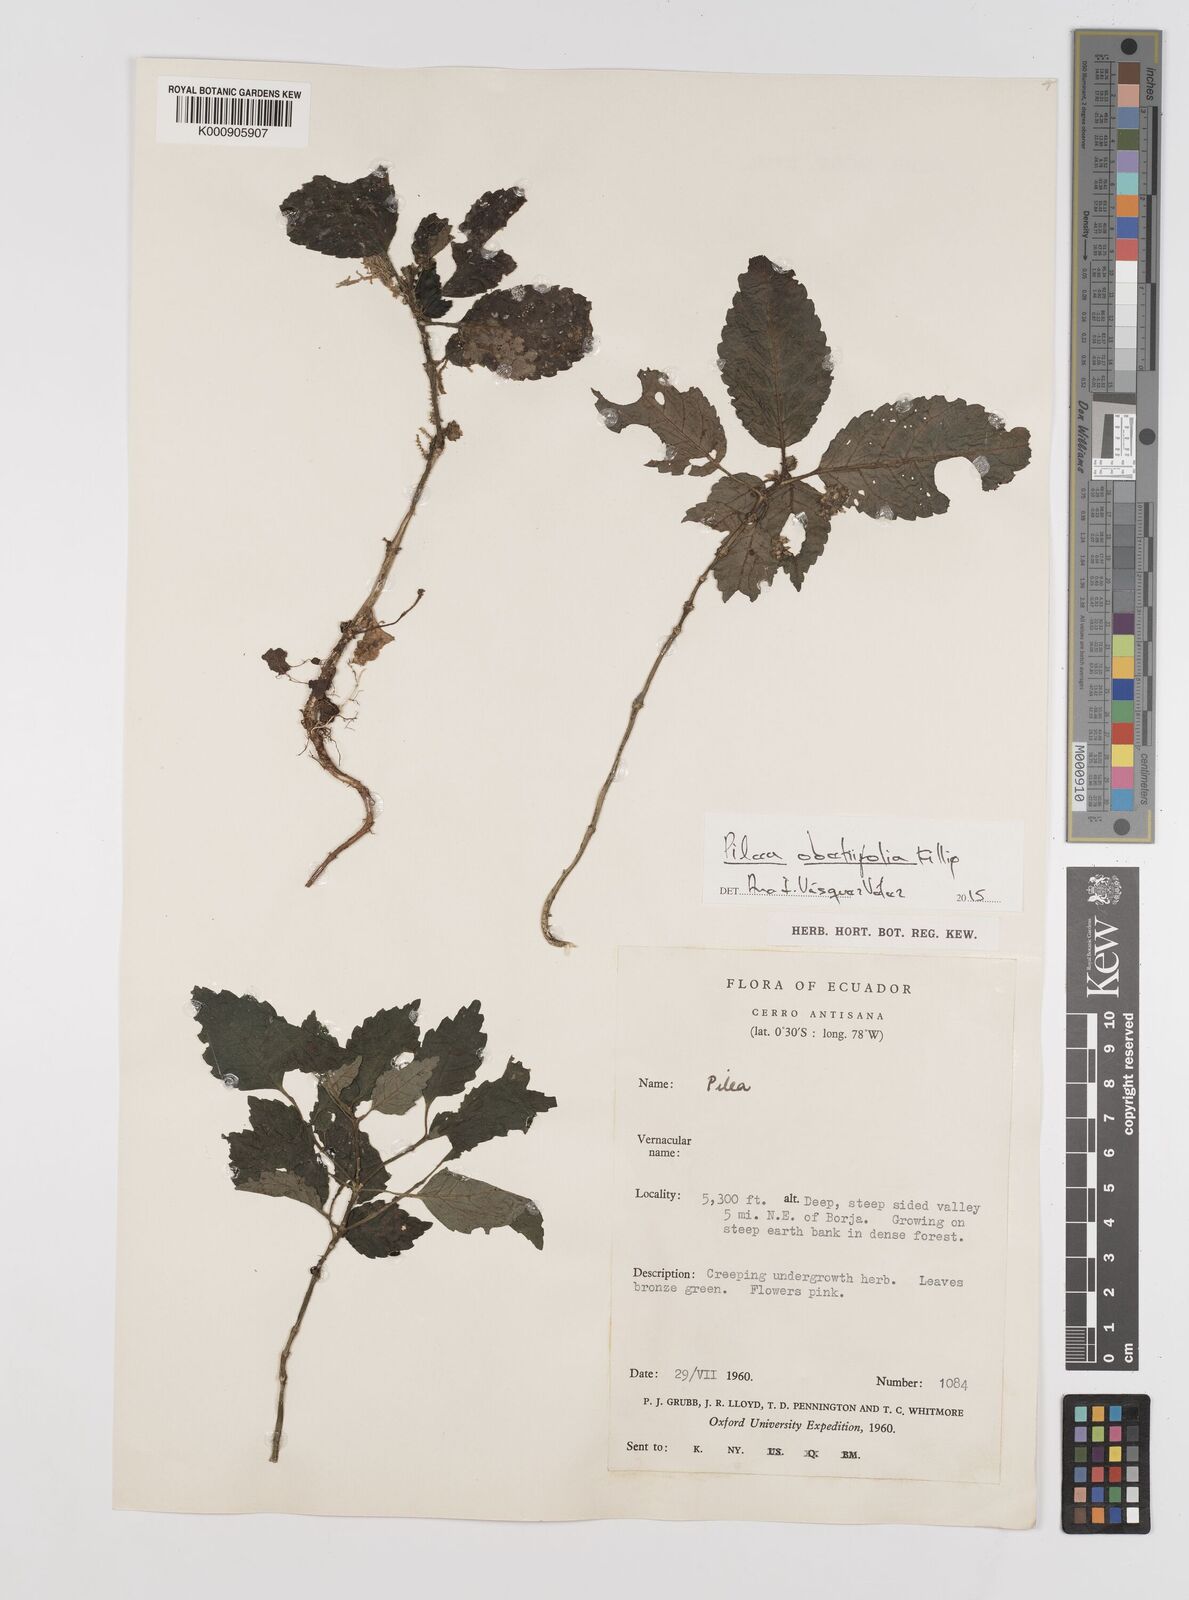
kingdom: Plantae
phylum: Tracheophyta
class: Magnoliopsida
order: Rosales
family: Urticaceae
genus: Pilea
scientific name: Pilea obetiifolia
